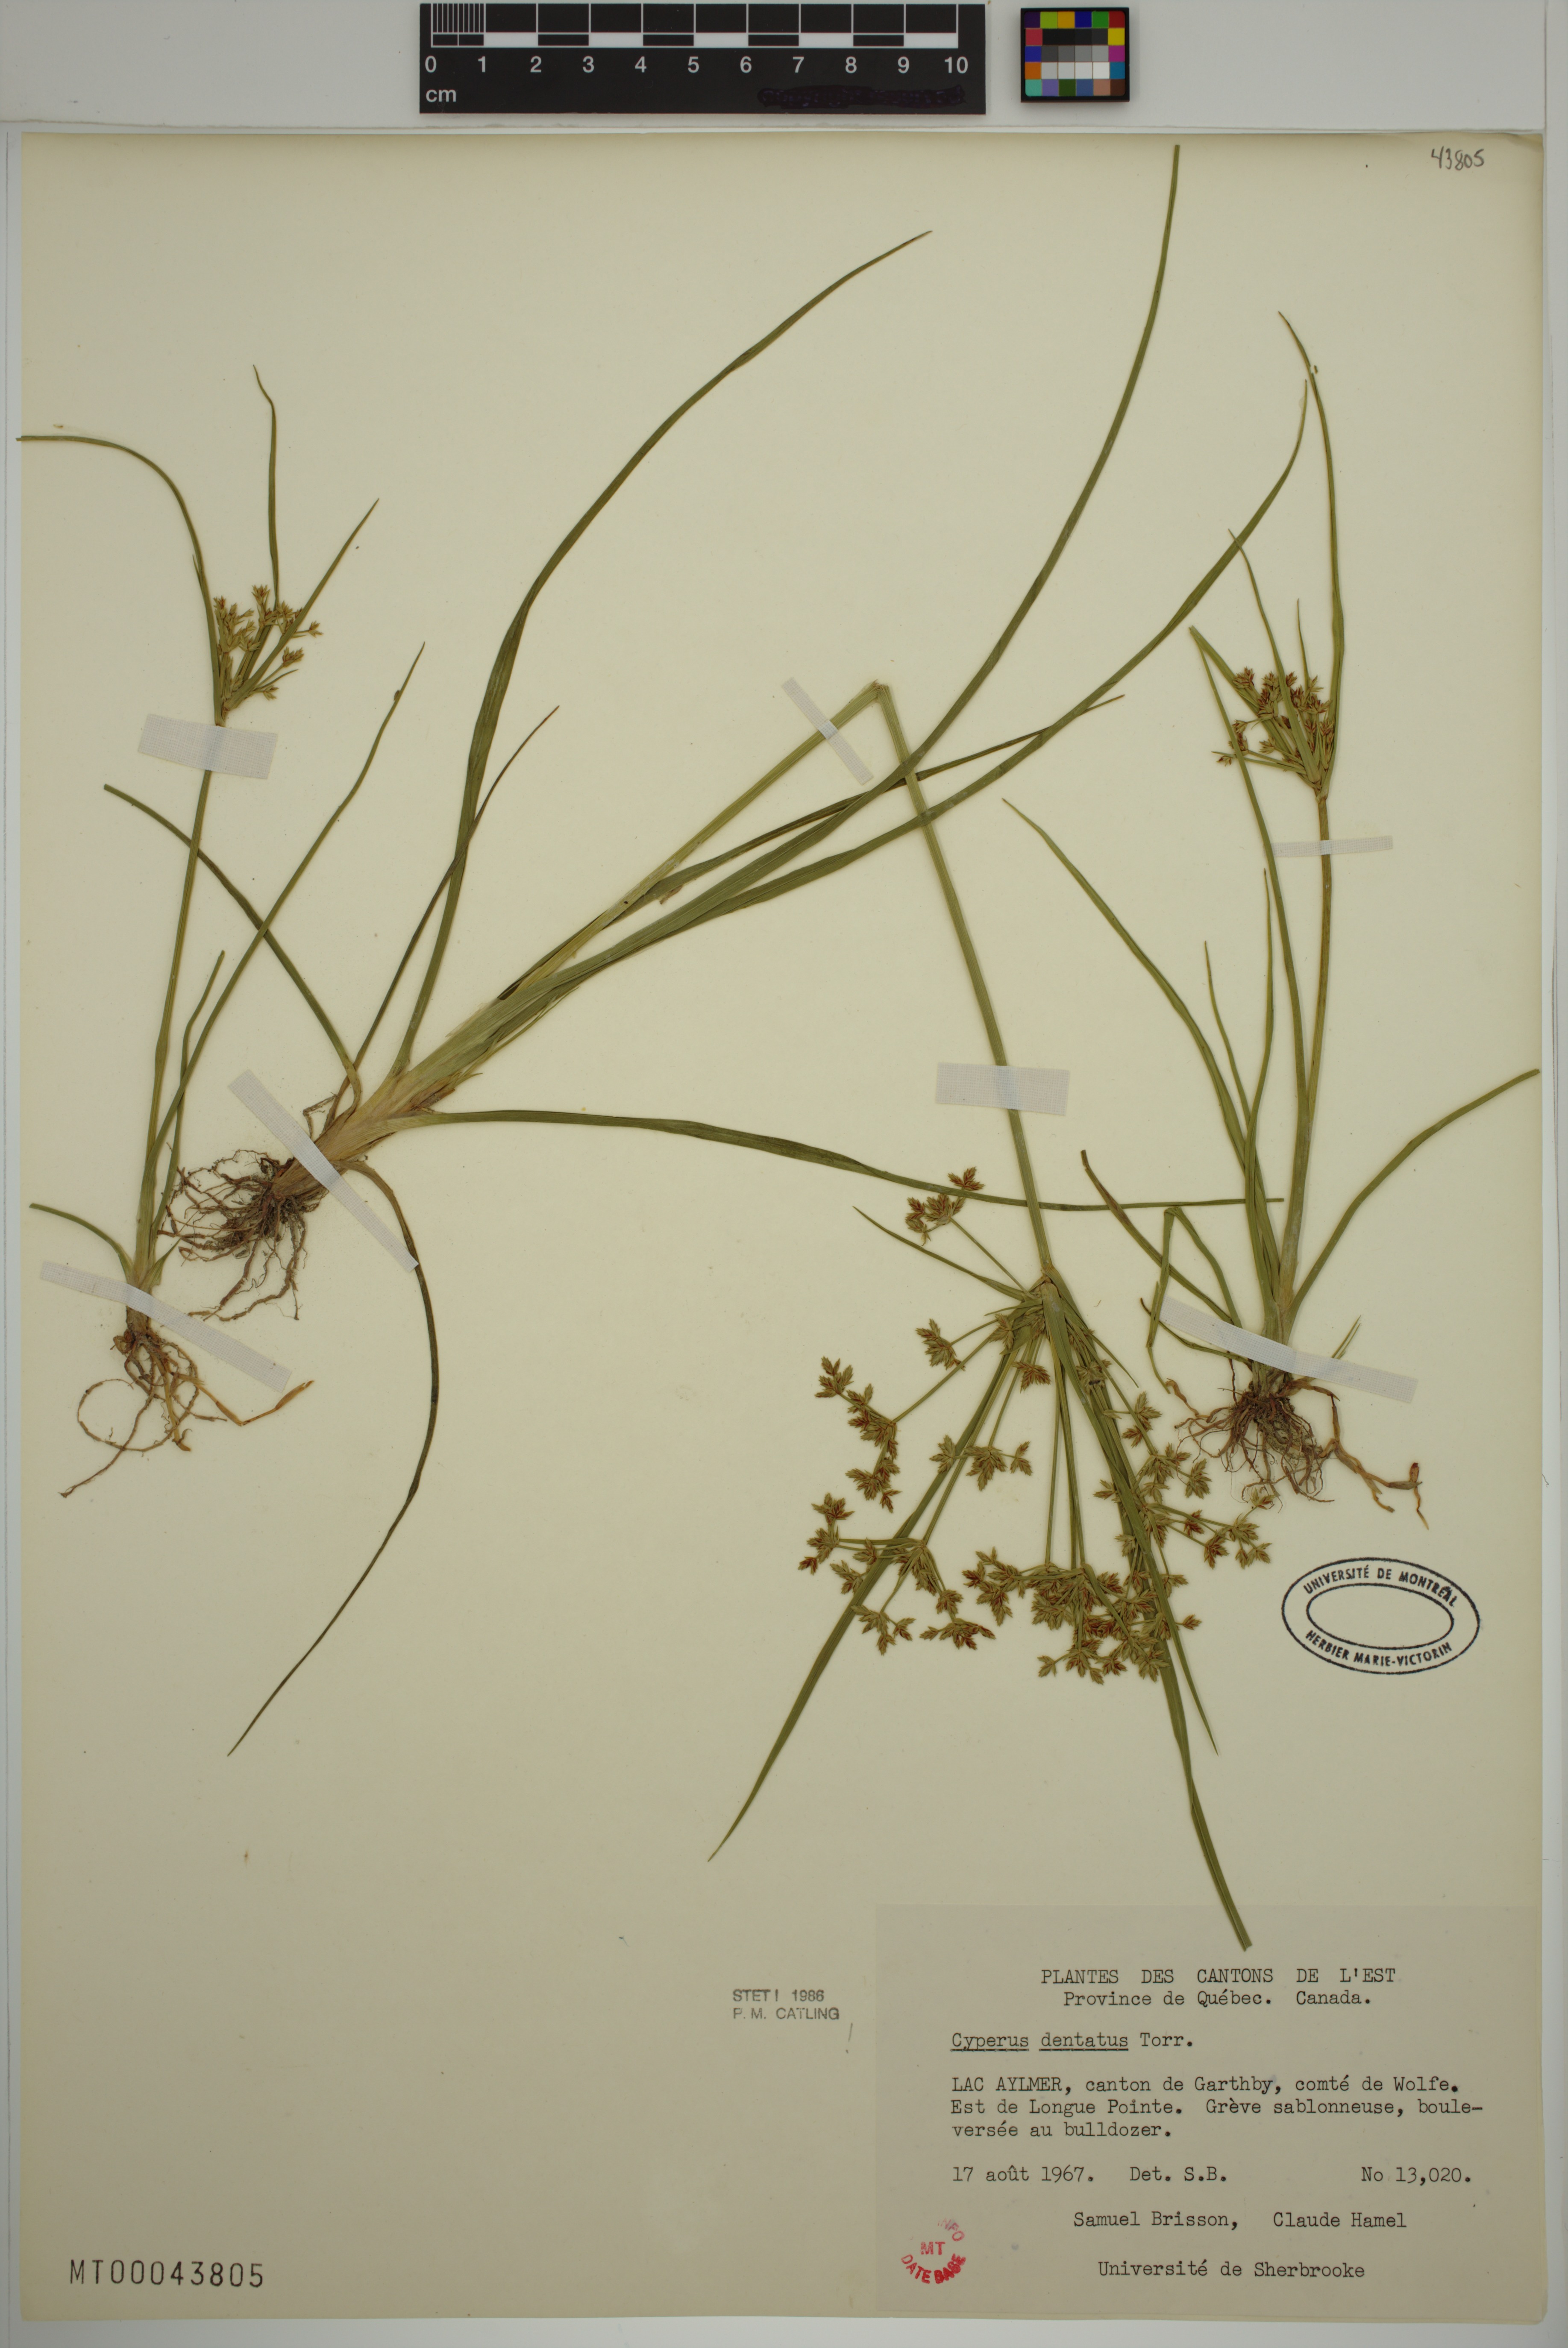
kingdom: Plantae
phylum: Tracheophyta
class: Liliopsida
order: Poales
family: Cyperaceae
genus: Cyperus
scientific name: Cyperus dentatus
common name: Dentate umbrella sedge
